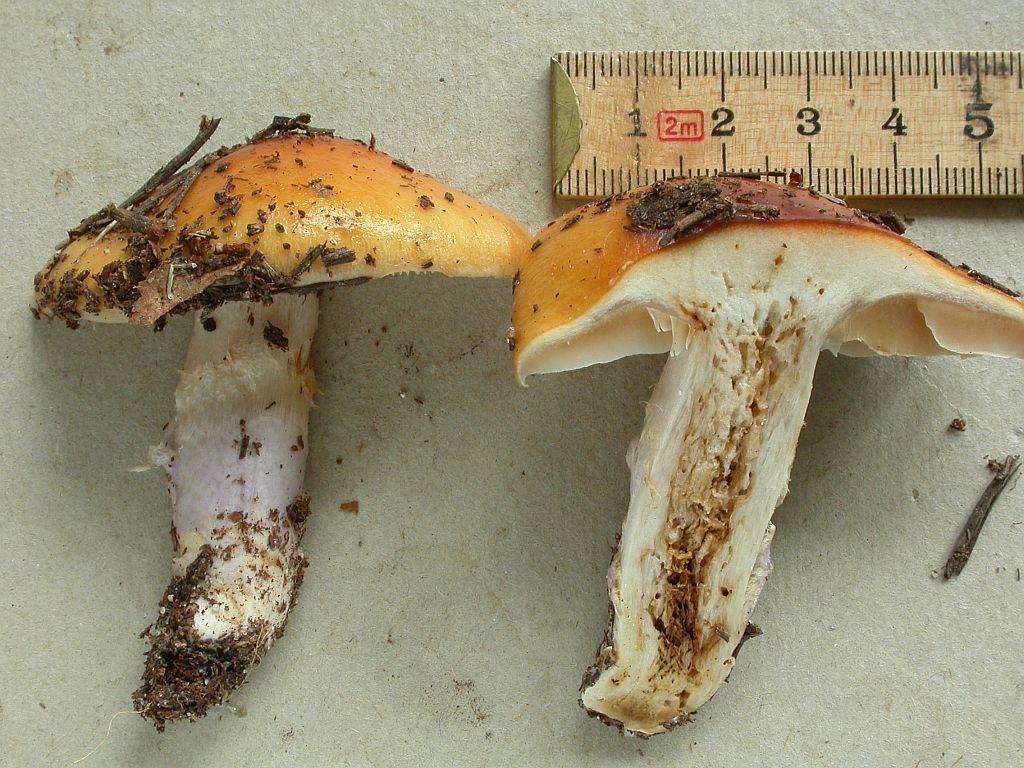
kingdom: Fungi
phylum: Basidiomycota
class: Agaricomycetes
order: Agaricales
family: Cortinariaceae
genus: Cortinarius
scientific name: Cortinarius mucosus
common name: kastaniebrun slørhat
